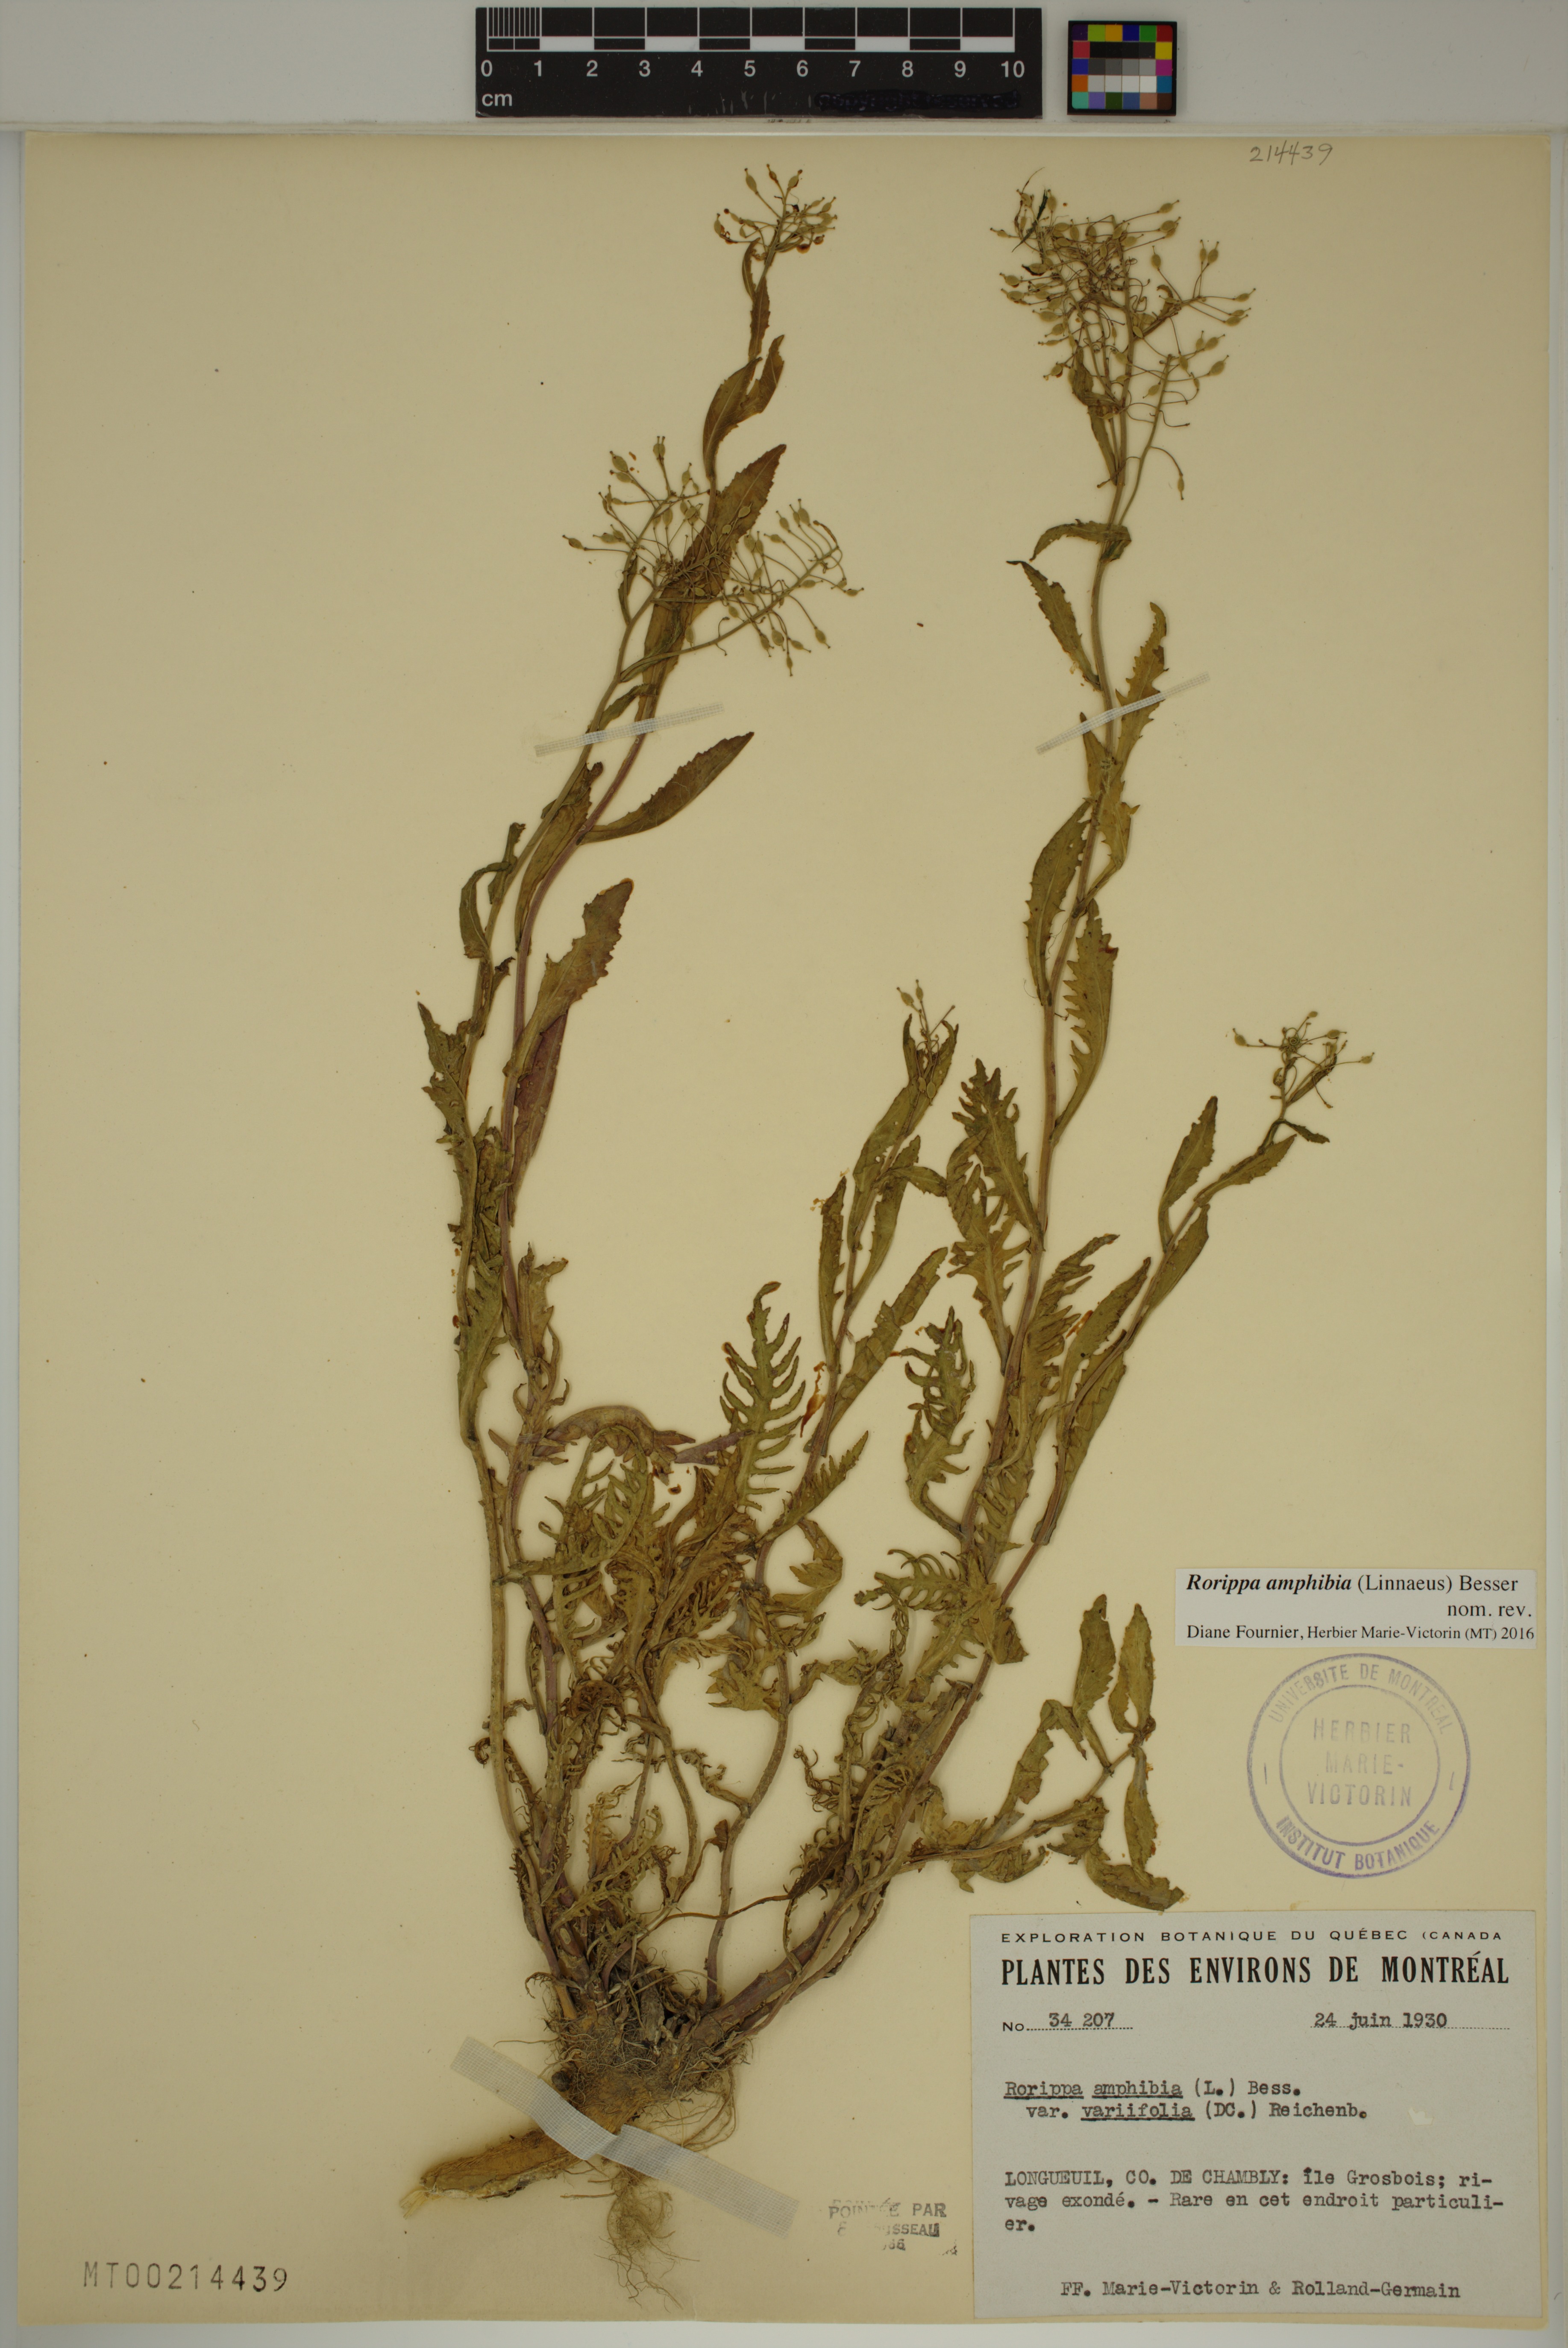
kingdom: Plantae
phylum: Tracheophyta
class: Magnoliopsida
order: Brassicales
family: Brassicaceae
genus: Rorippa
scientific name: Rorippa amphibia
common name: Great yellow-cress
